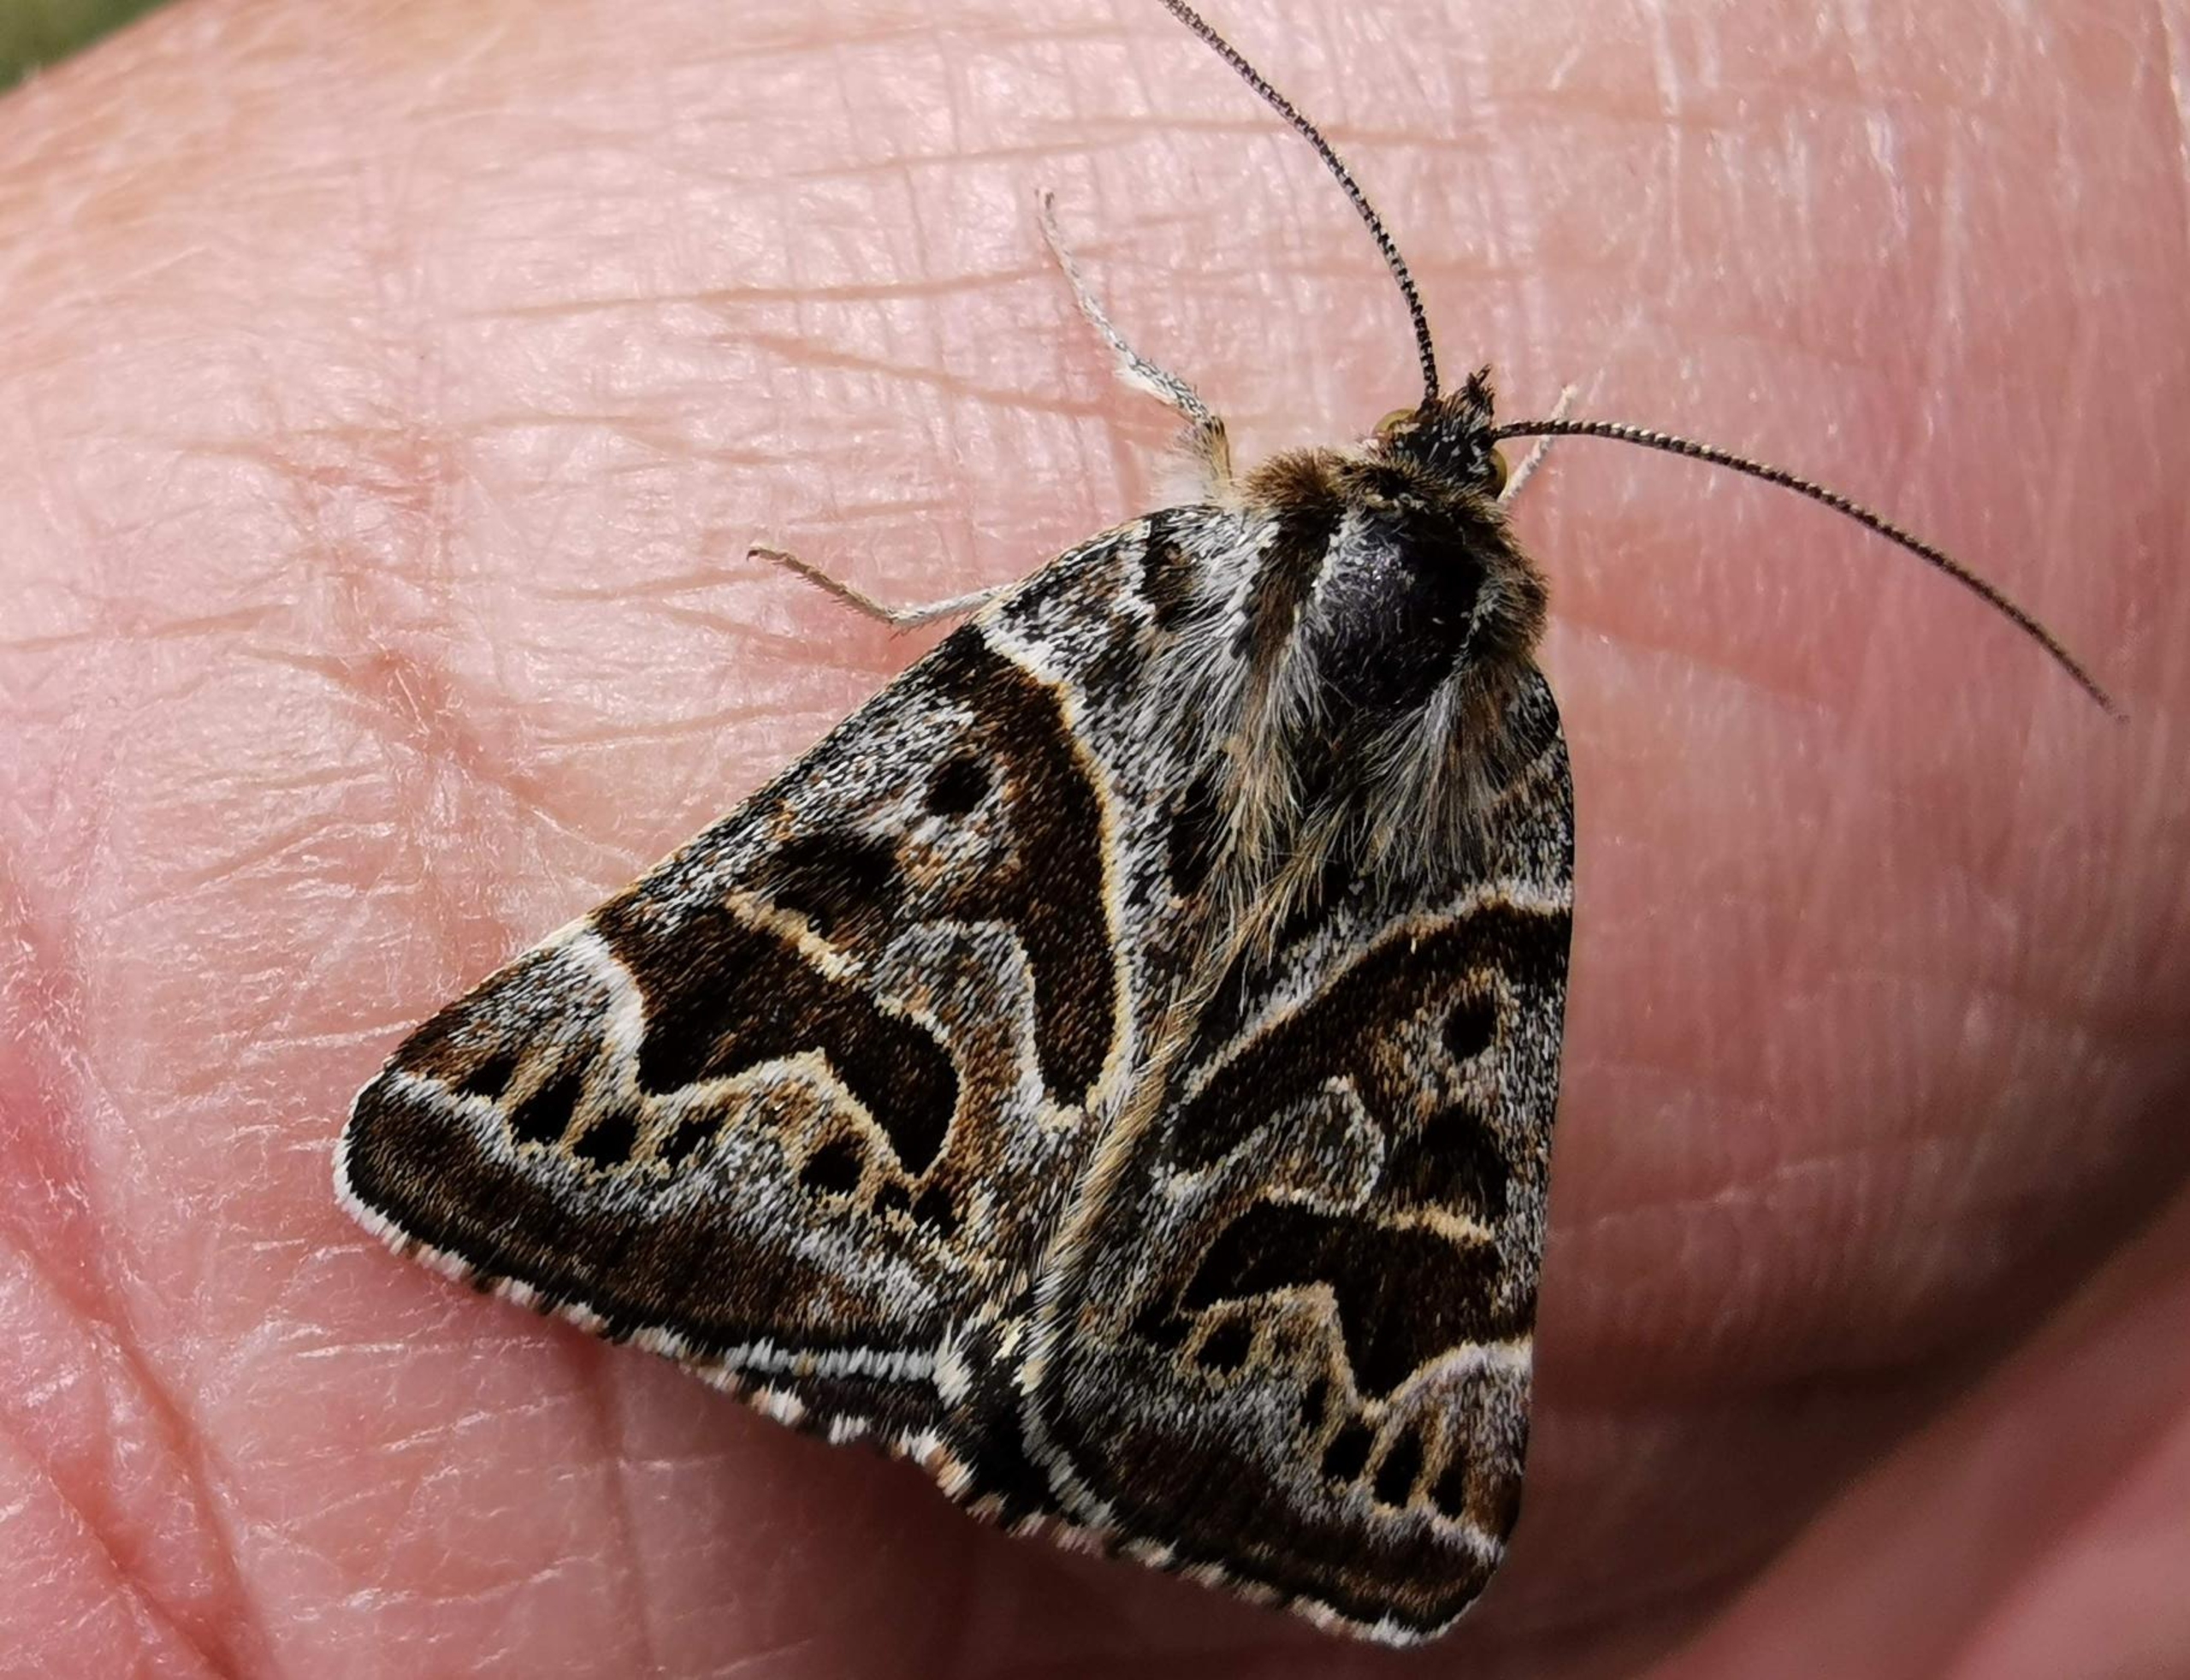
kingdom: Animalia
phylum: Arthropoda
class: Insecta
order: Lepidoptera
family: Erebidae
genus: Callistege
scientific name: Callistege mi
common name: Marmoreret kløverugle
